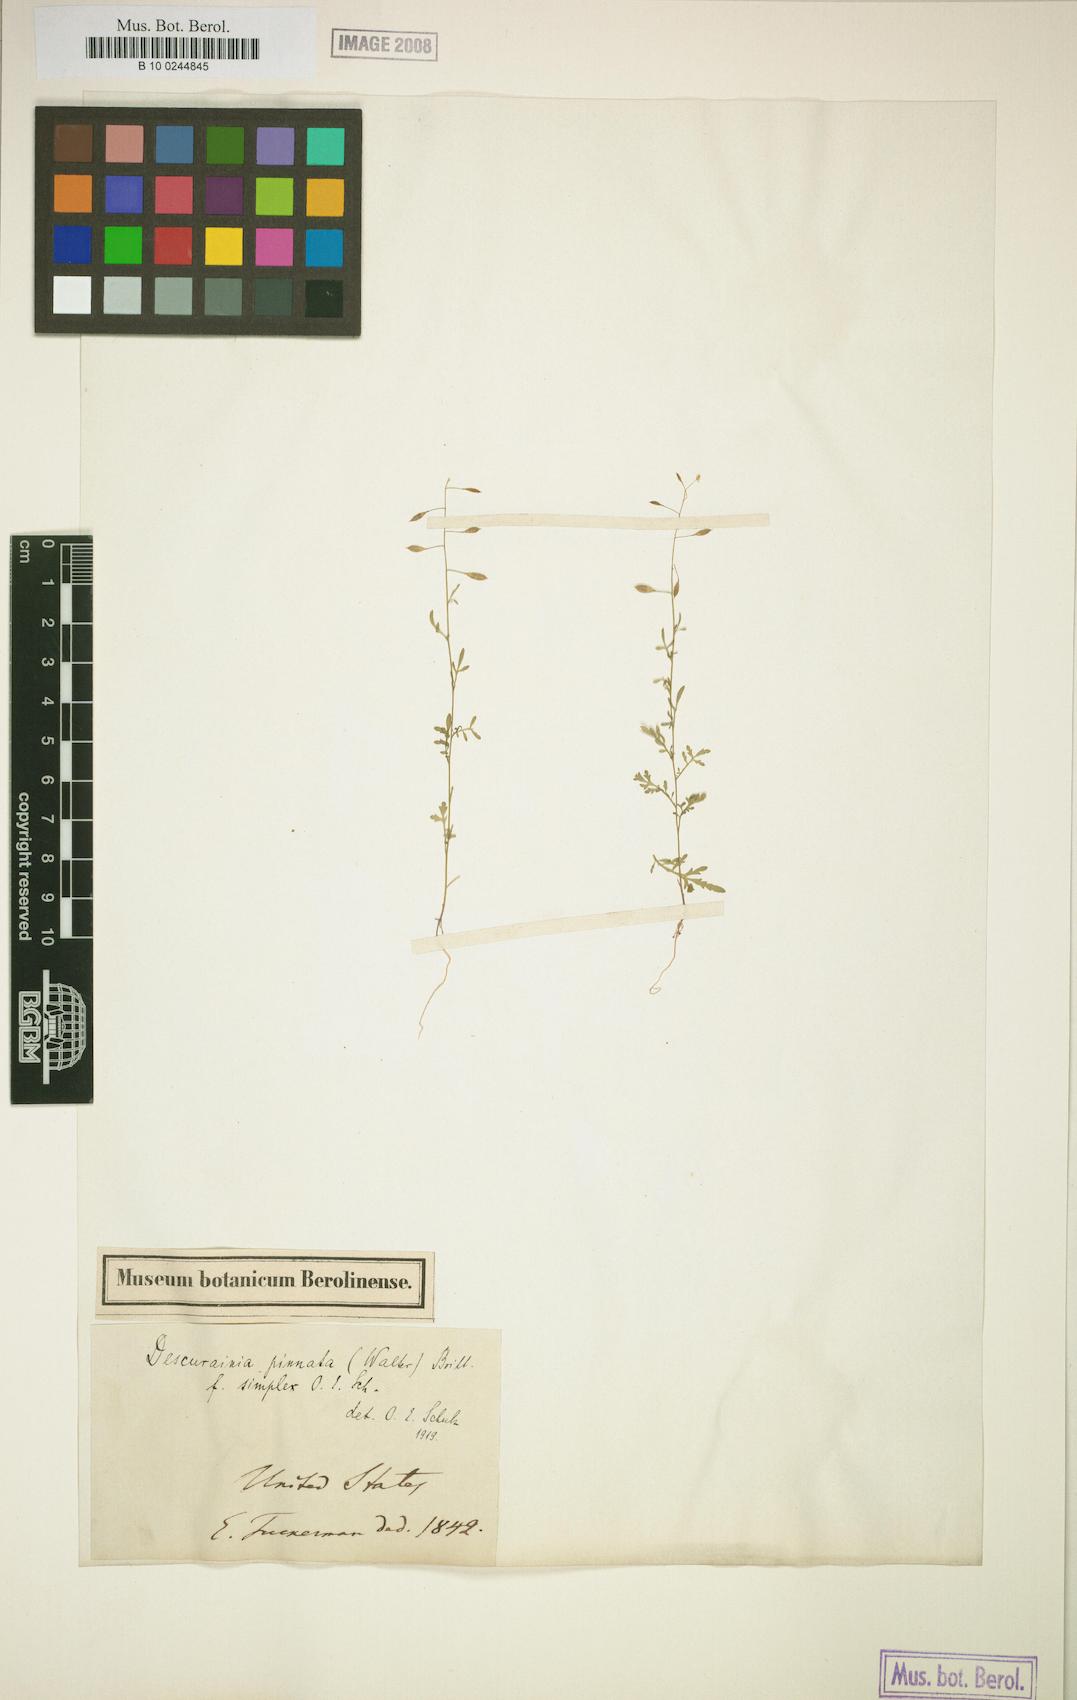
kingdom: Plantae
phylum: Tracheophyta
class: Magnoliopsida
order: Brassicales
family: Brassicaceae
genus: Descurainia
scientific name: Descurainia pinnata
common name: Western tansy mustard
